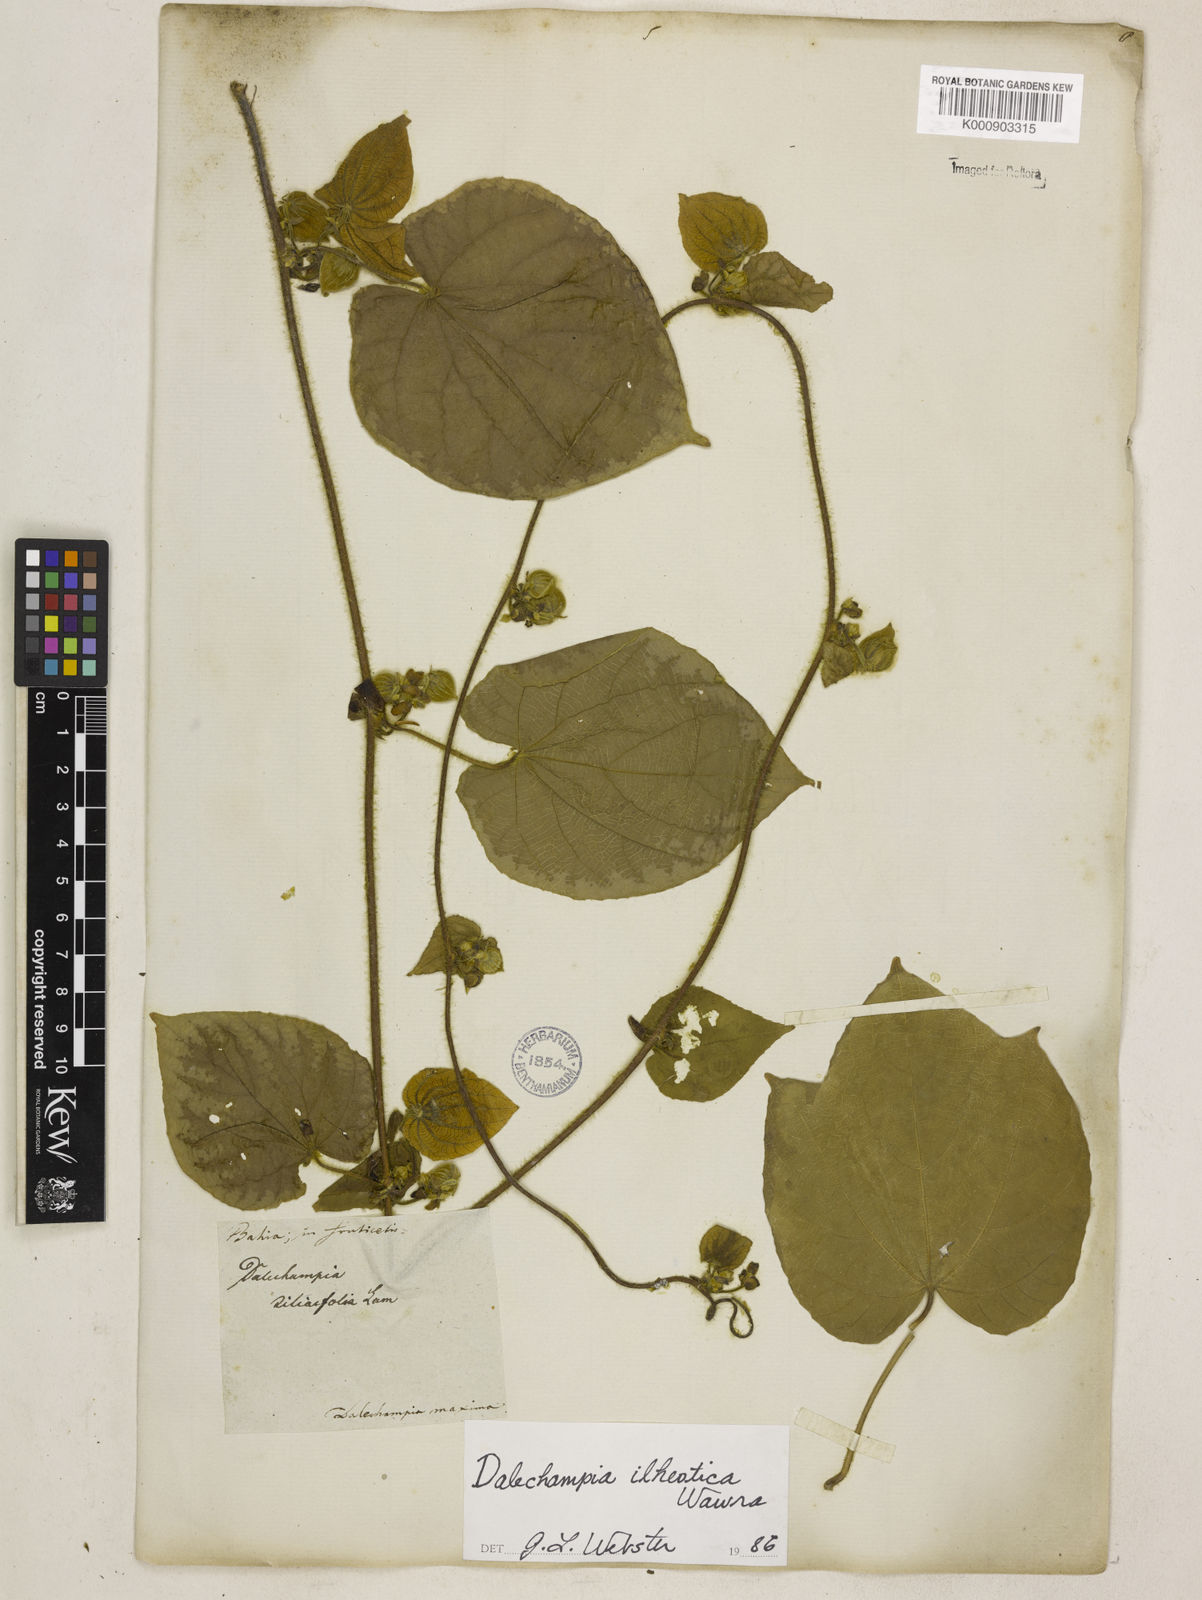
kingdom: Plantae
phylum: Tracheophyta
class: Magnoliopsida
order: Malpighiales
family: Euphorbiaceae
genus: Dalechampia
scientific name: Dalechampia ilheotica
